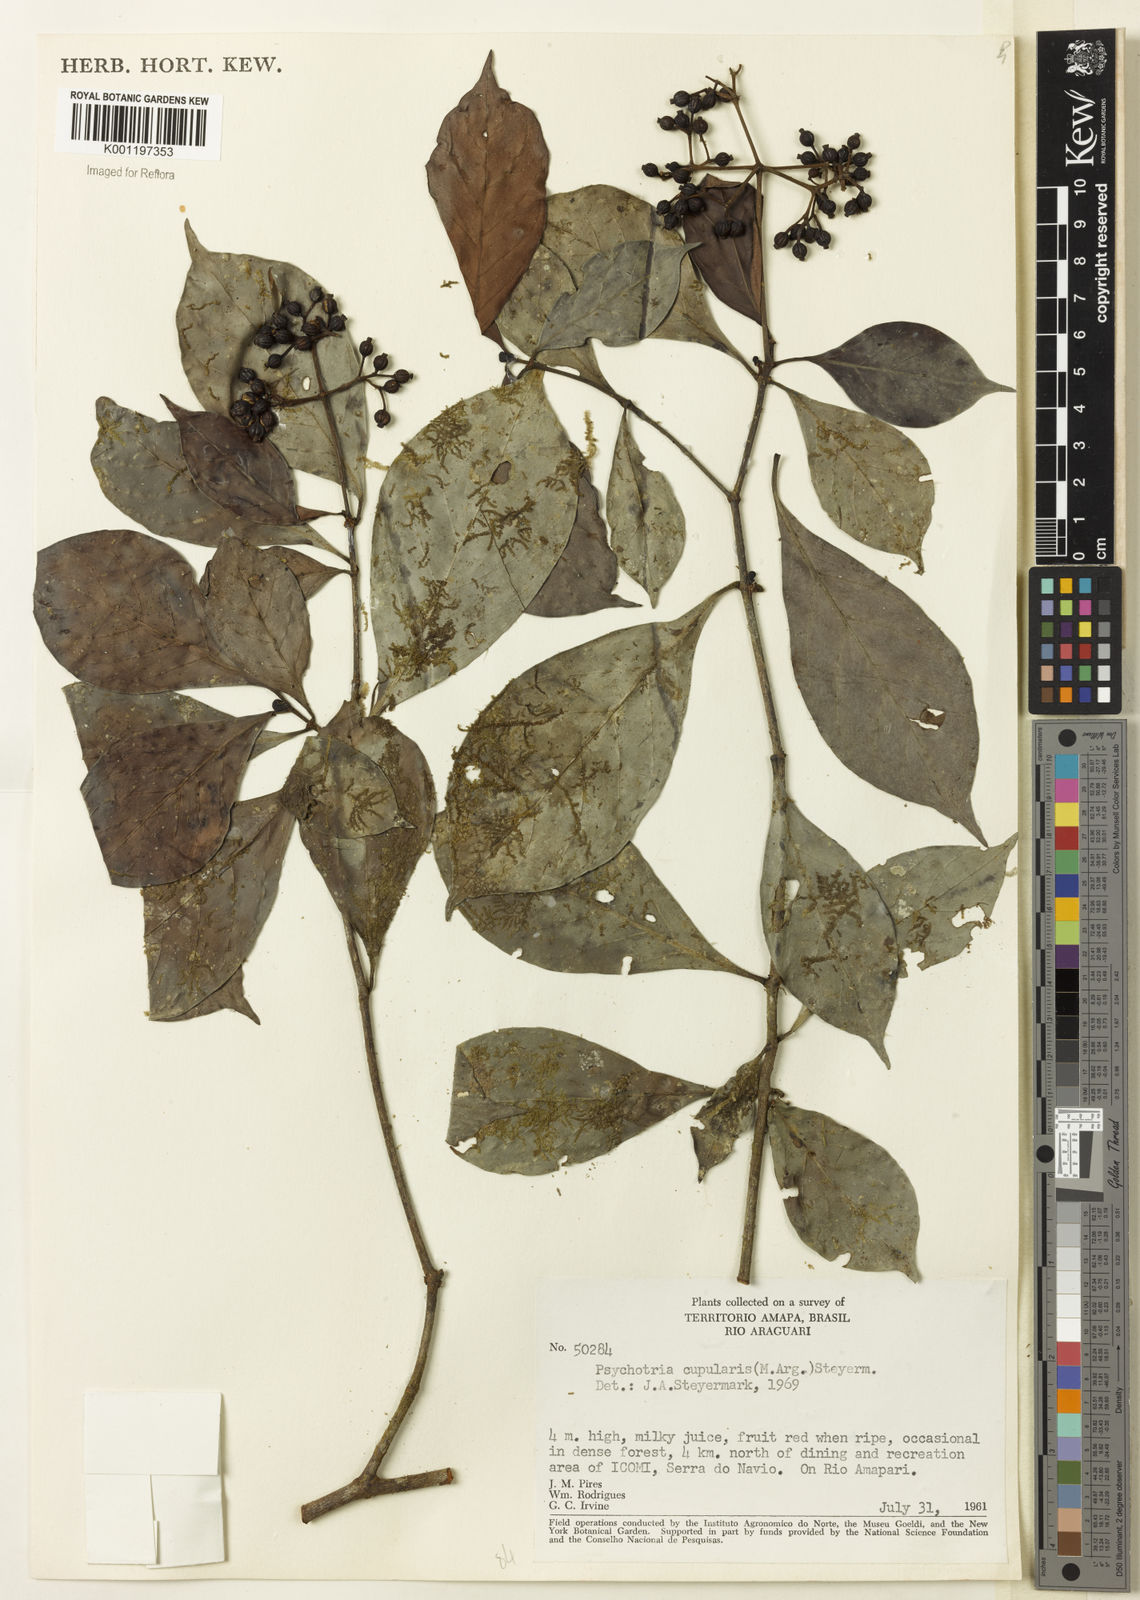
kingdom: Plantae
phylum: Tracheophyta
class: Magnoliopsida
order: Gentianales
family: Rubiaceae
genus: Psychotria
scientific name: Psychotria
